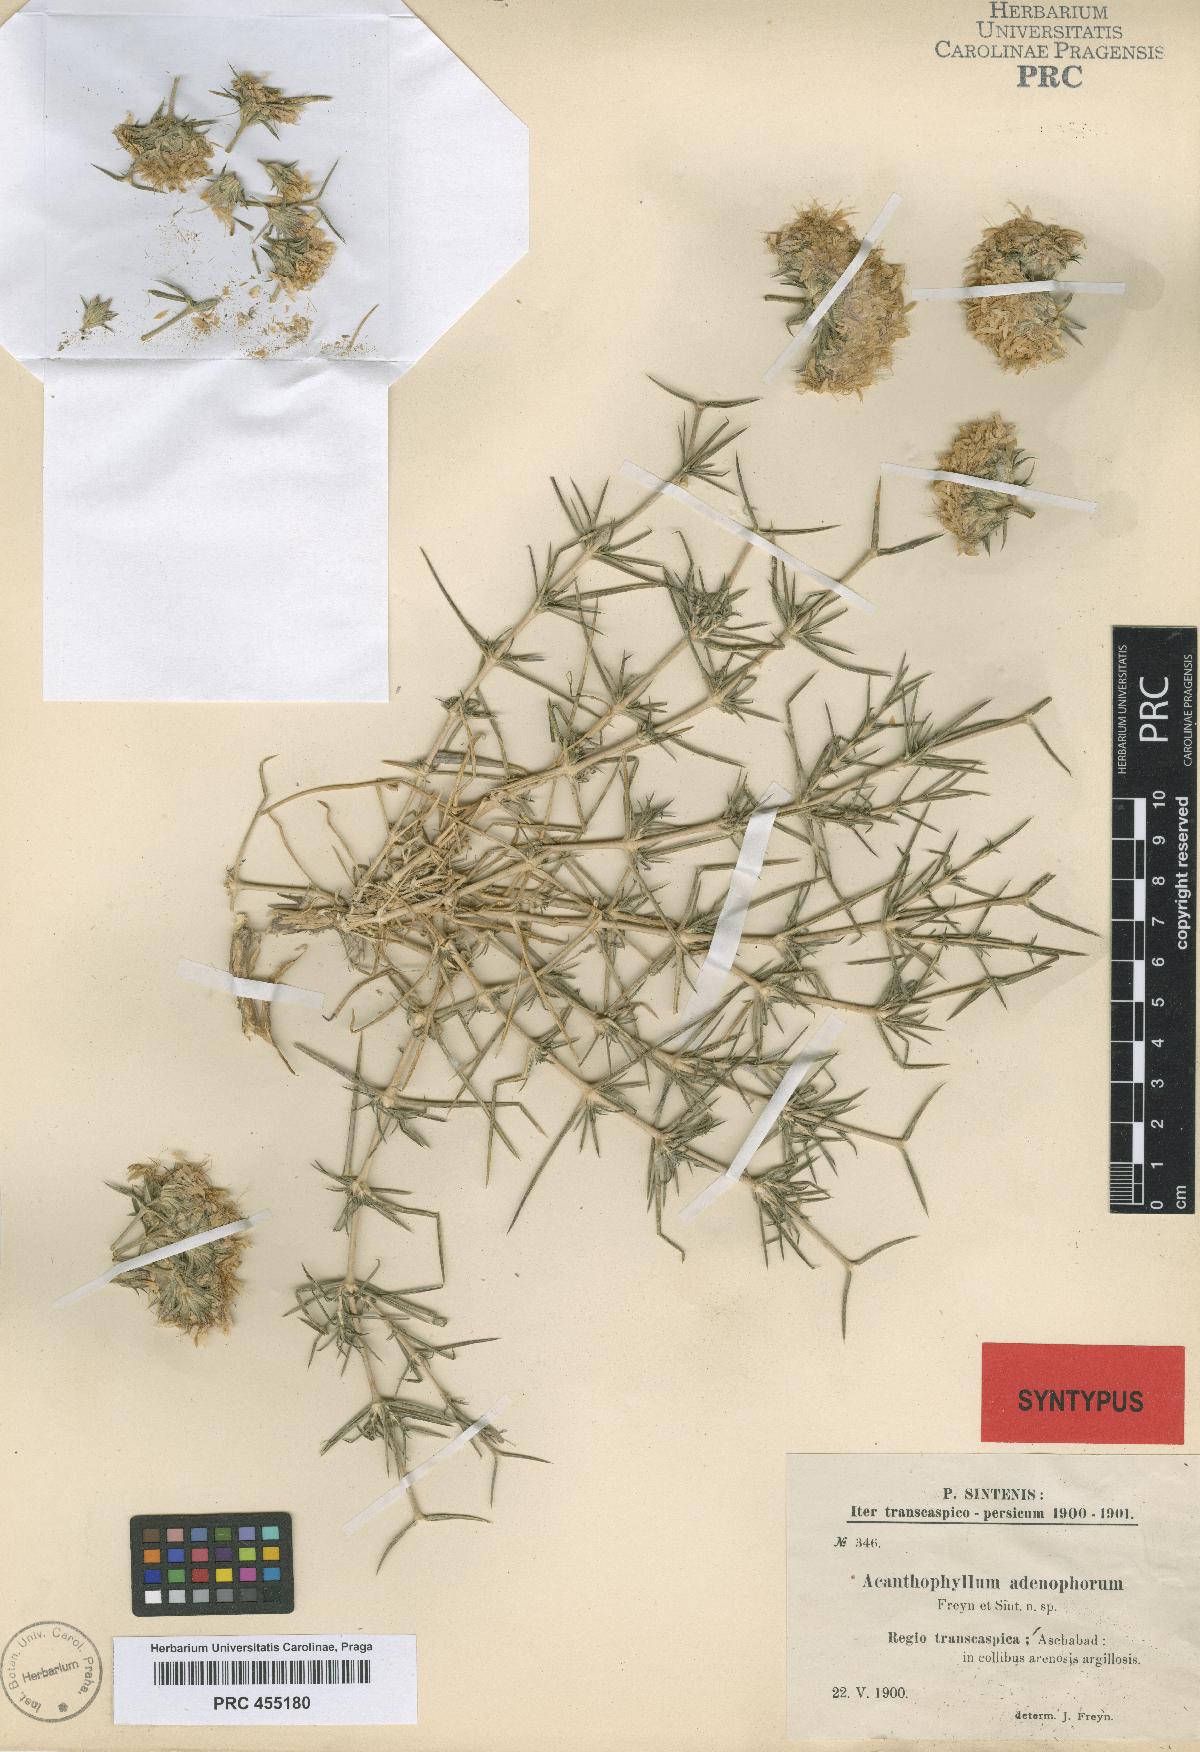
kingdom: Plantae
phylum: Tracheophyta
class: Magnoliopsida
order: Caryophyllales
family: Caryophyllaceae
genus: Acanthophyllum
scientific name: Acanthophyllum adenophorum
